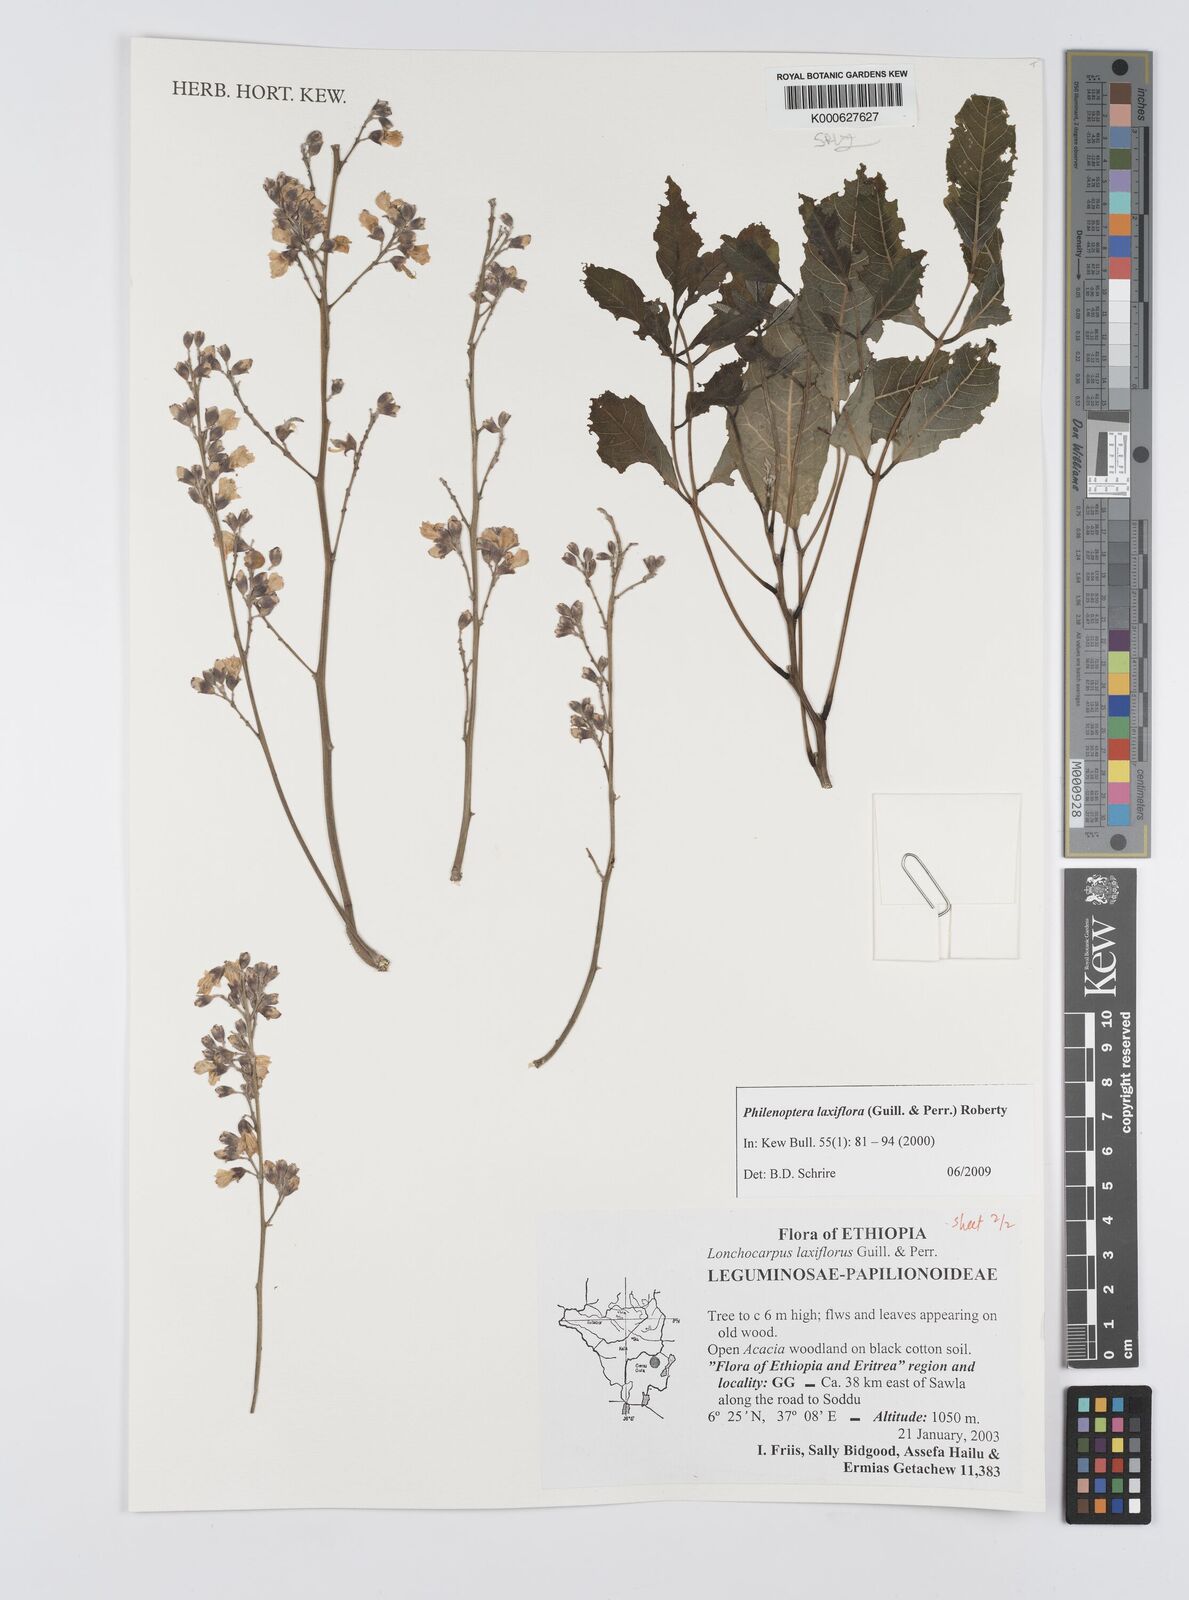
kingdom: Plantae
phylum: Tracheophyta
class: Magnoliopsida
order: Fabales
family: Fabaceae
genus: Philenoptera
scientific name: Philenoptera laxiflora
